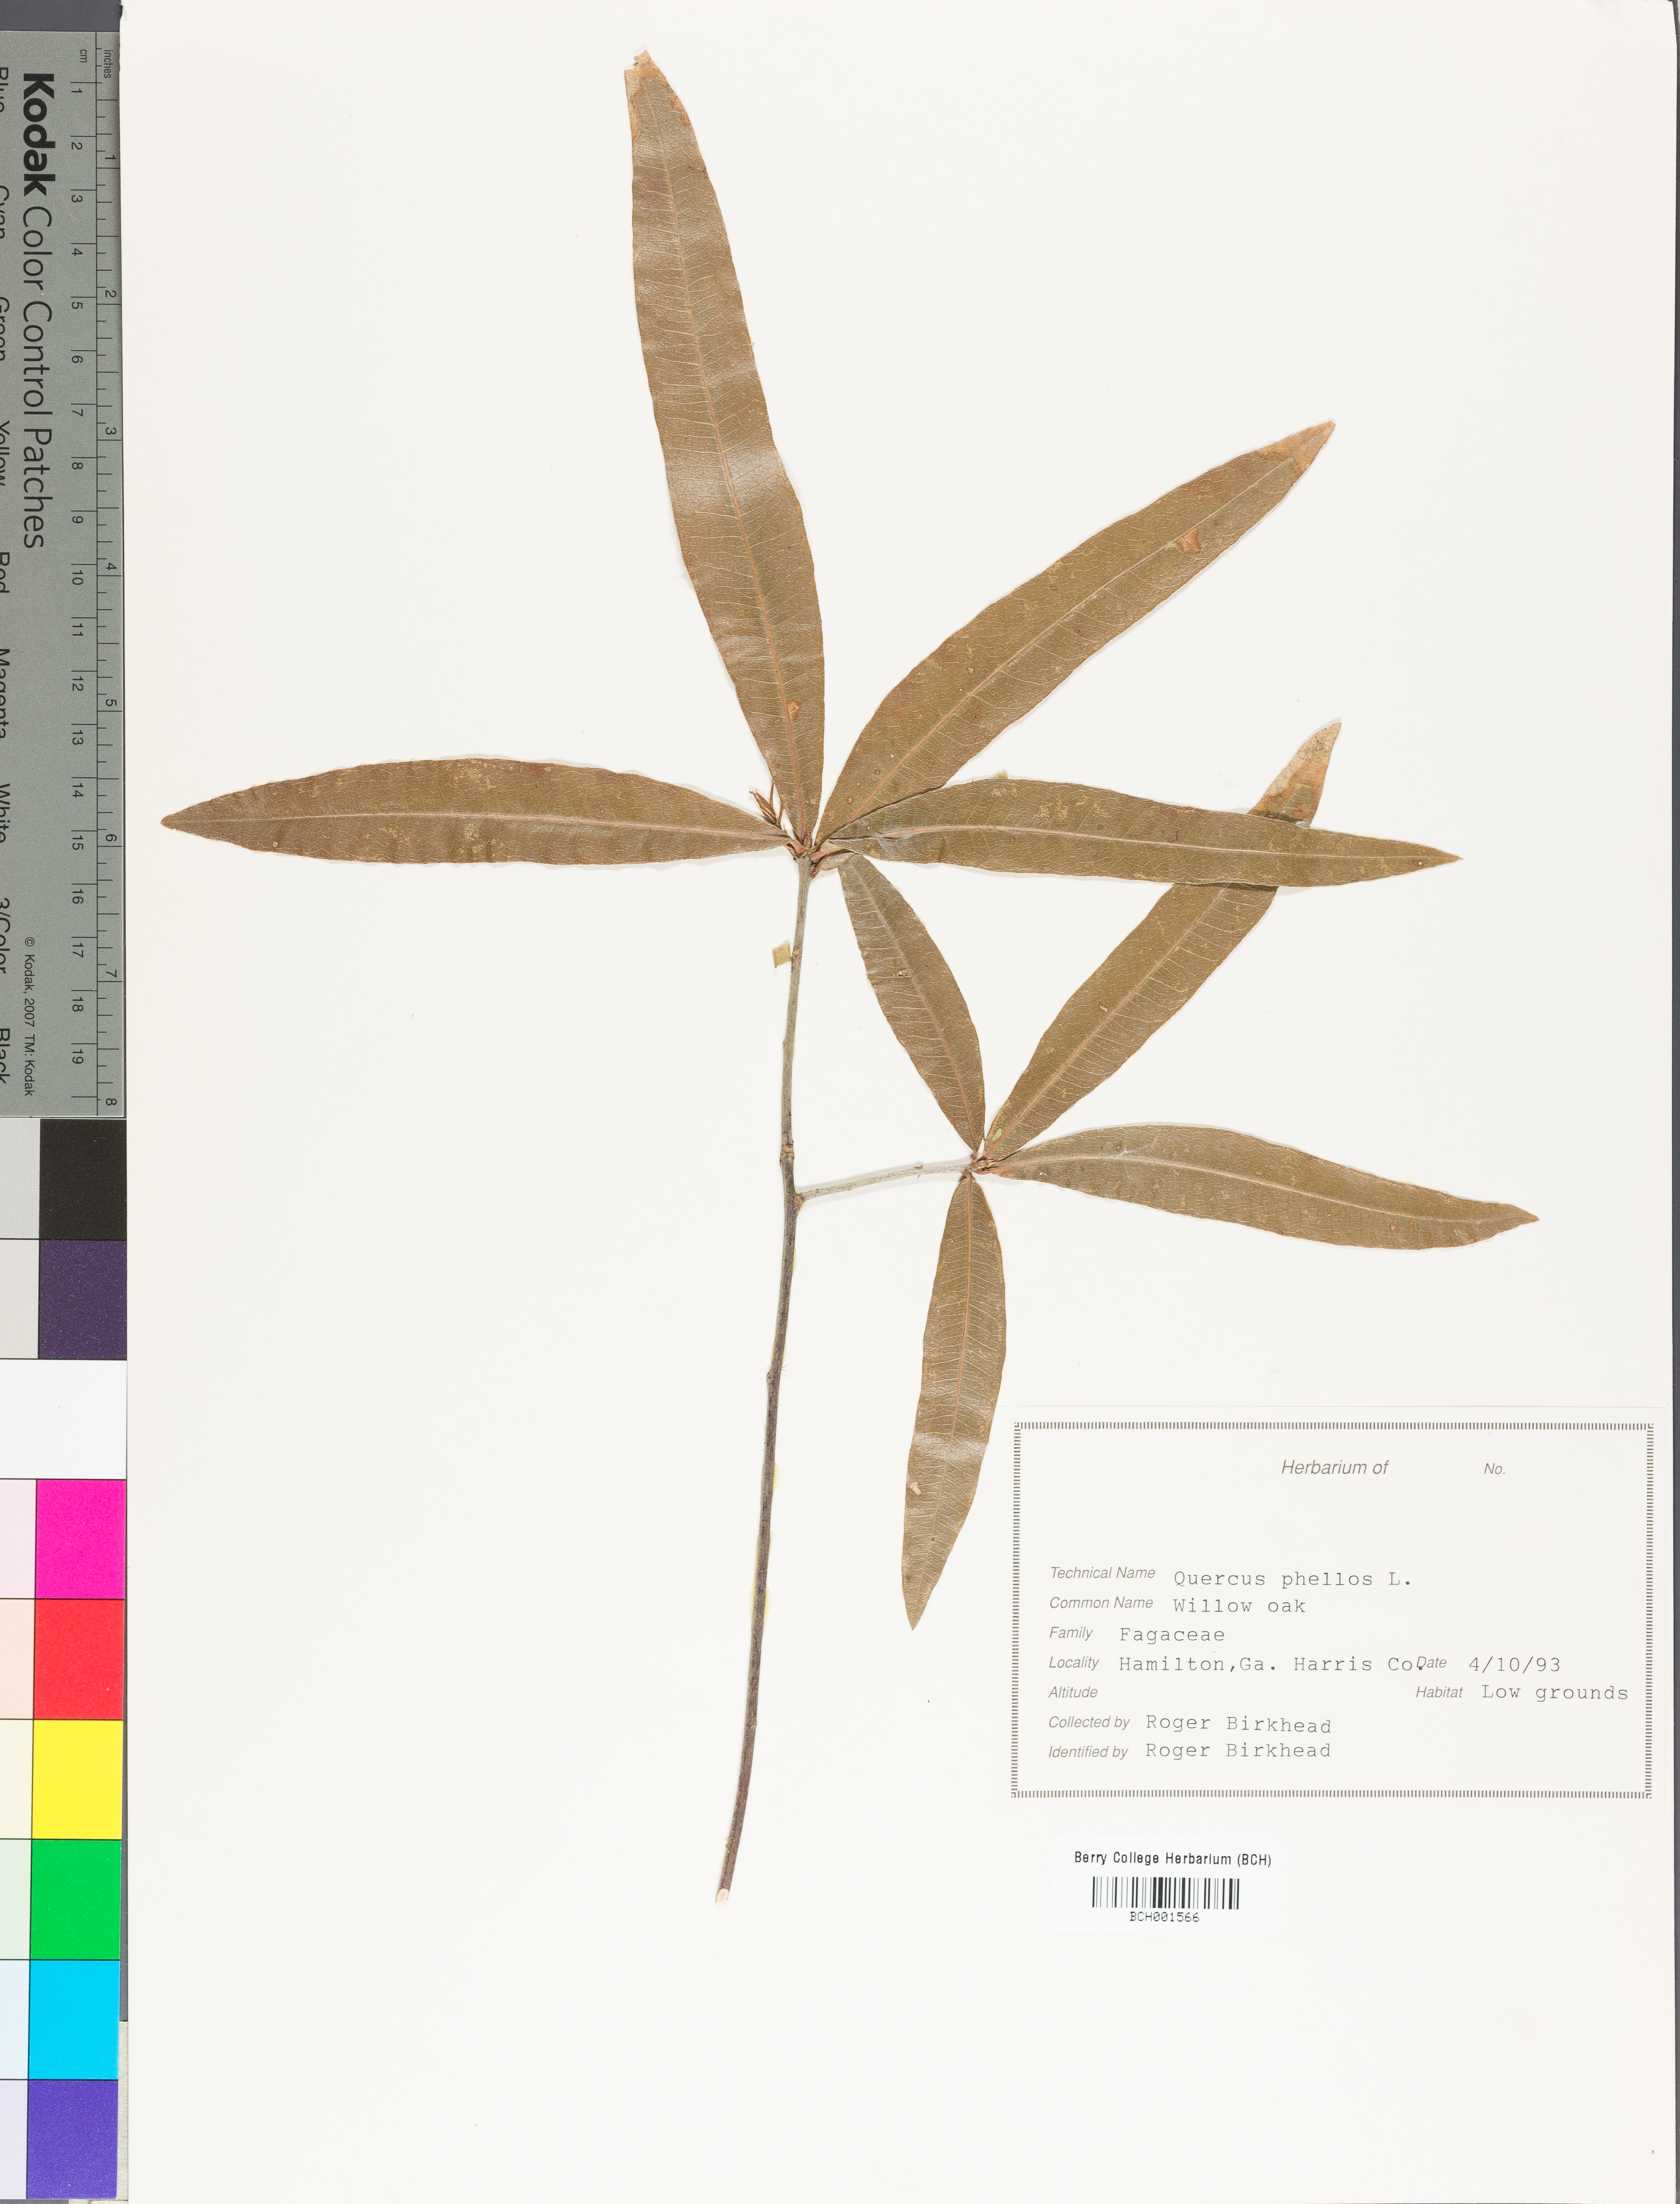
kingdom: Plantae
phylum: Tracheophyta
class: Magnoliopsida
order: Fagales
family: Fagaceae
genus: Quercus
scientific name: Quercus phellos
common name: Willow oak
